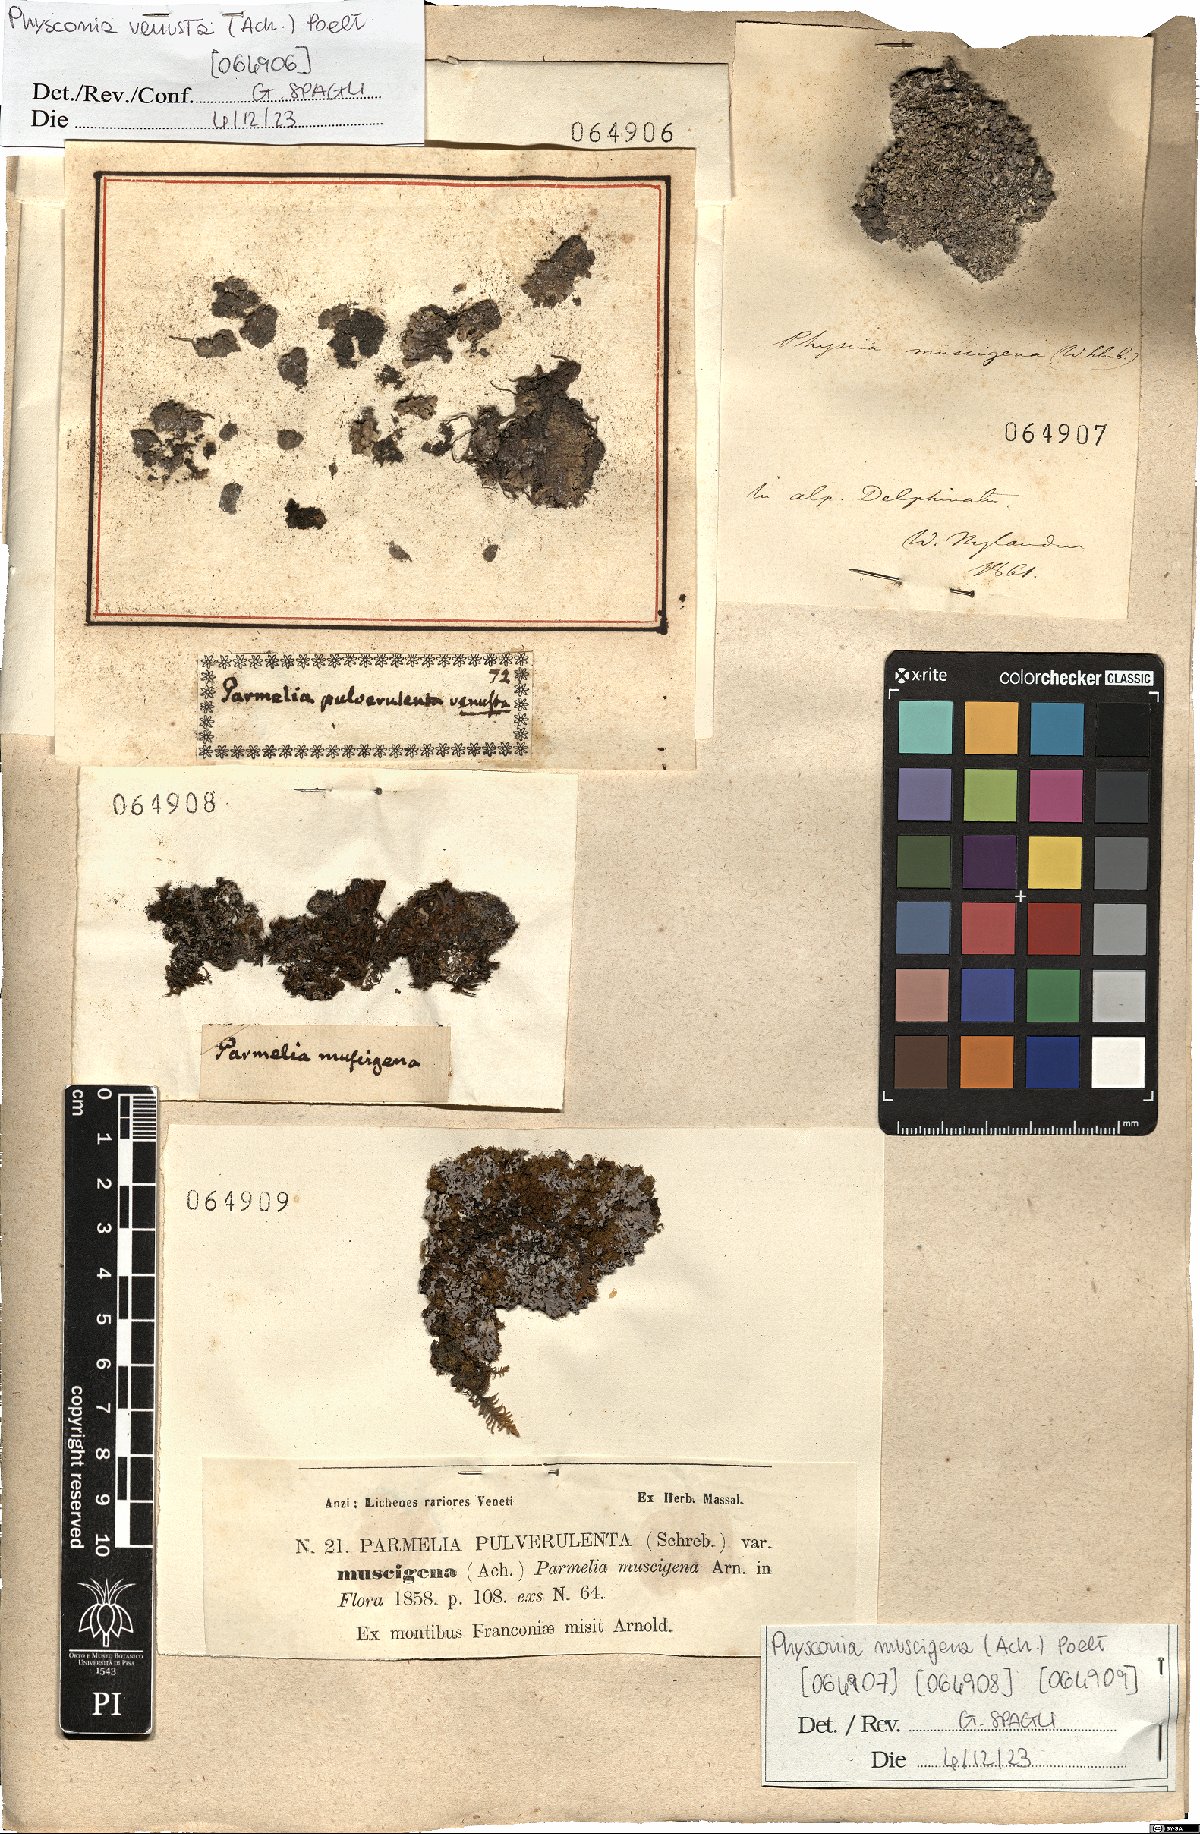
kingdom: Fungi
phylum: Ascomycota
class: Lecanoromycetes
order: Caliciales
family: Physciaceae
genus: Poeltonia
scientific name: Poeltonia venusta
